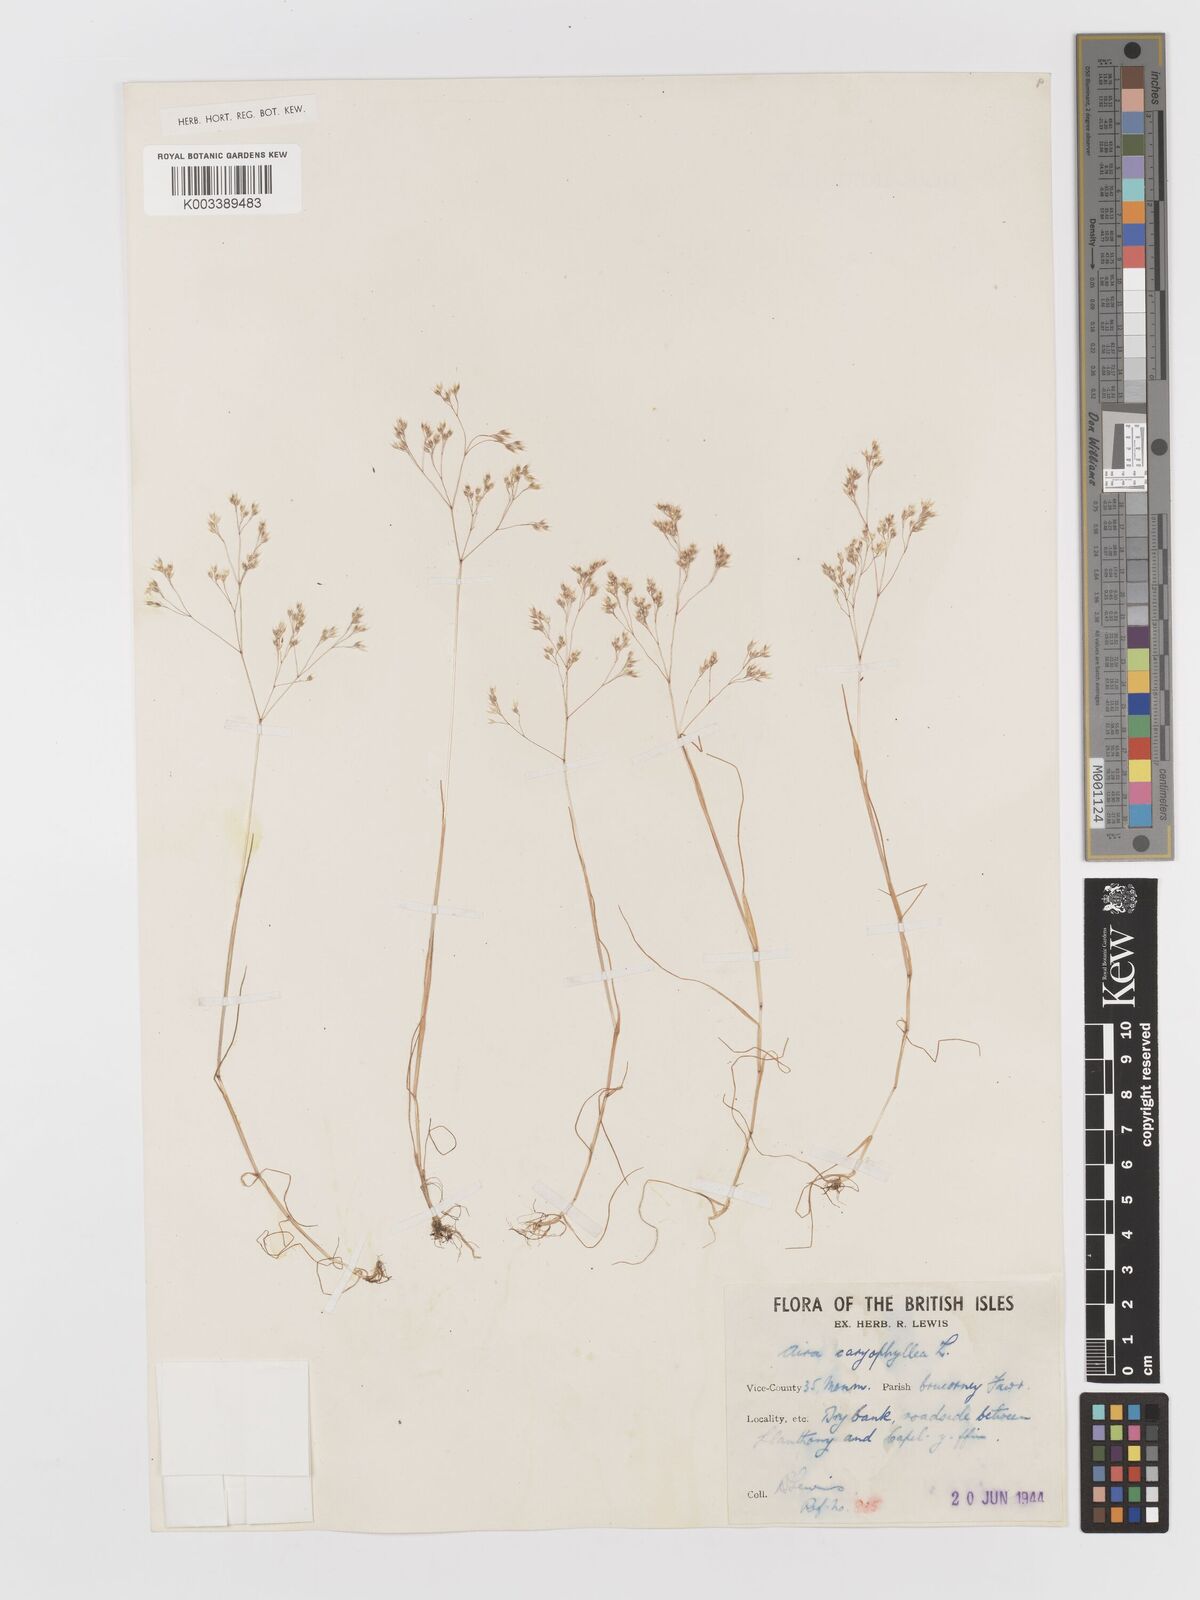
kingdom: Plantae
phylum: Tracheophyta
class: Liliopsida
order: Poales
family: Poaceae
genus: Aira
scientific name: Aira caryophyllea
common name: Silver hairgrass
